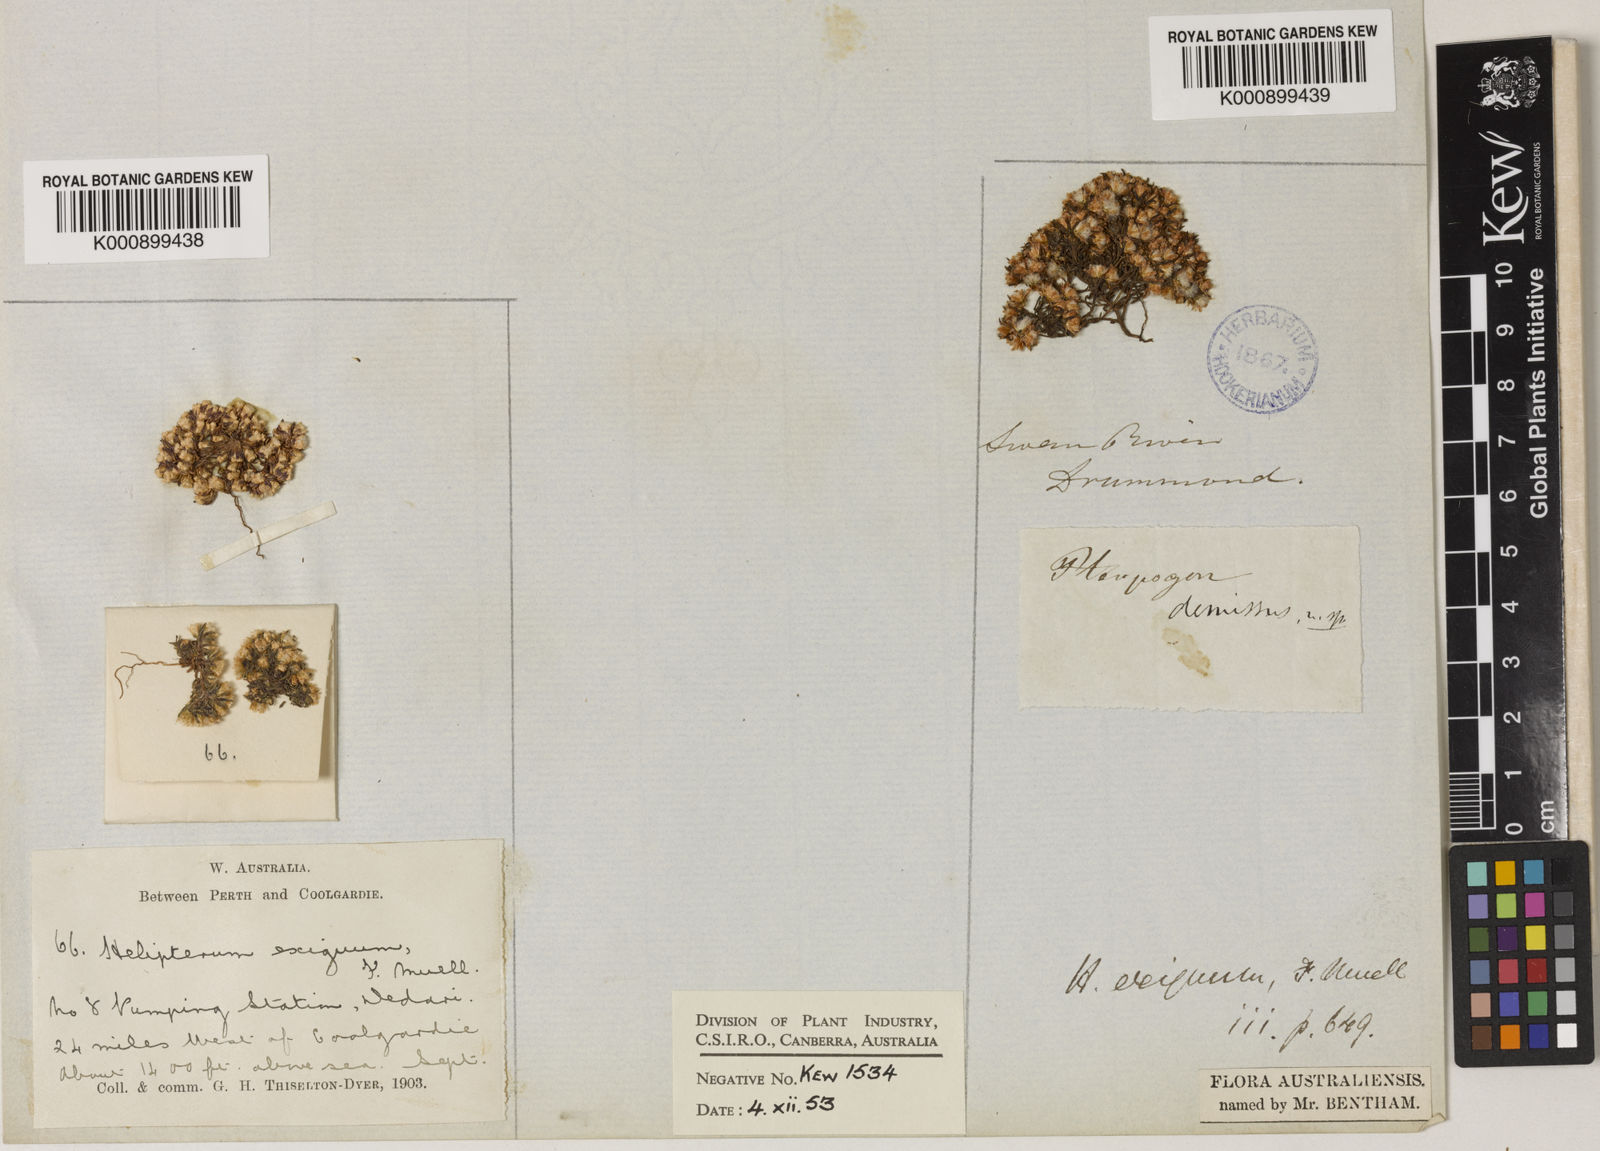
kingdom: Plantae
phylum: Tracheophyta
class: Magnoliopsida
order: Asterales
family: Asteraceae
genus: Hyalosperma
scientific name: Hyalosperma demissum
